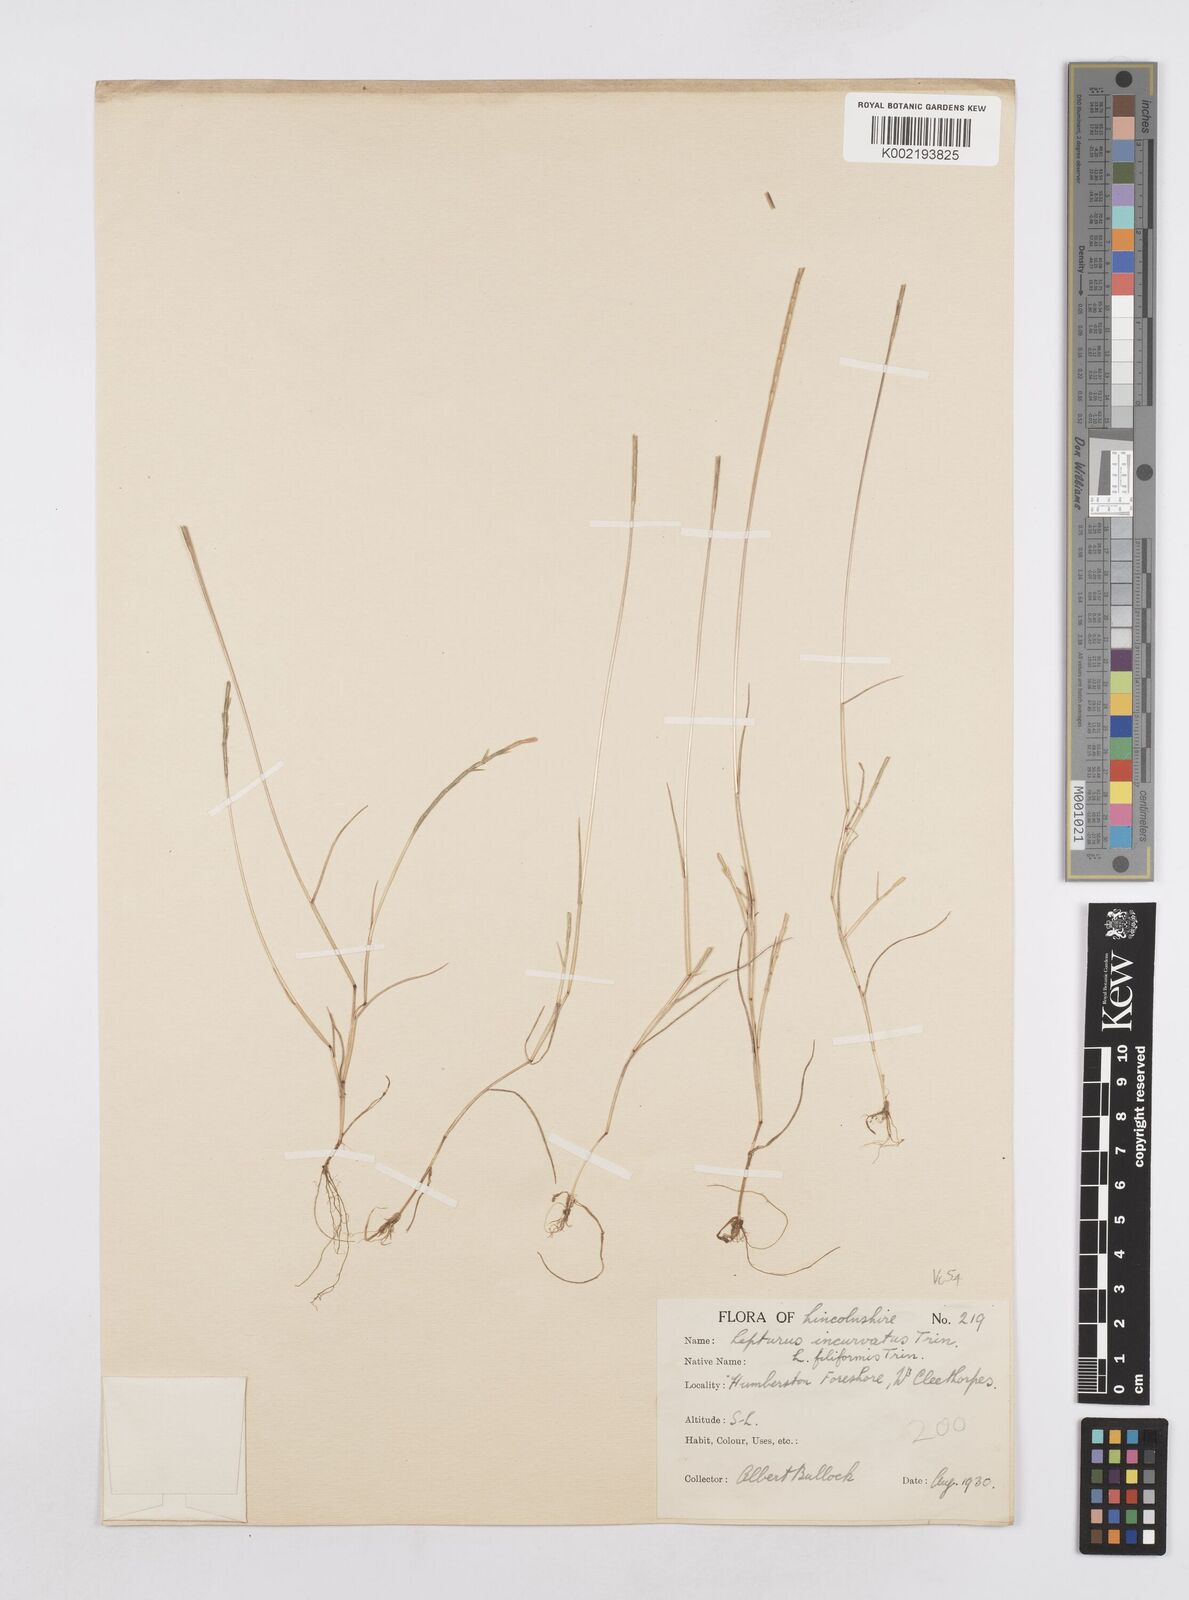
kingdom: Plantae
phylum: Tracheophyta
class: Liliopsida
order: Poales
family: Poaceae
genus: Parapholis
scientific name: Parapholis strigosa
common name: Hard-grass
